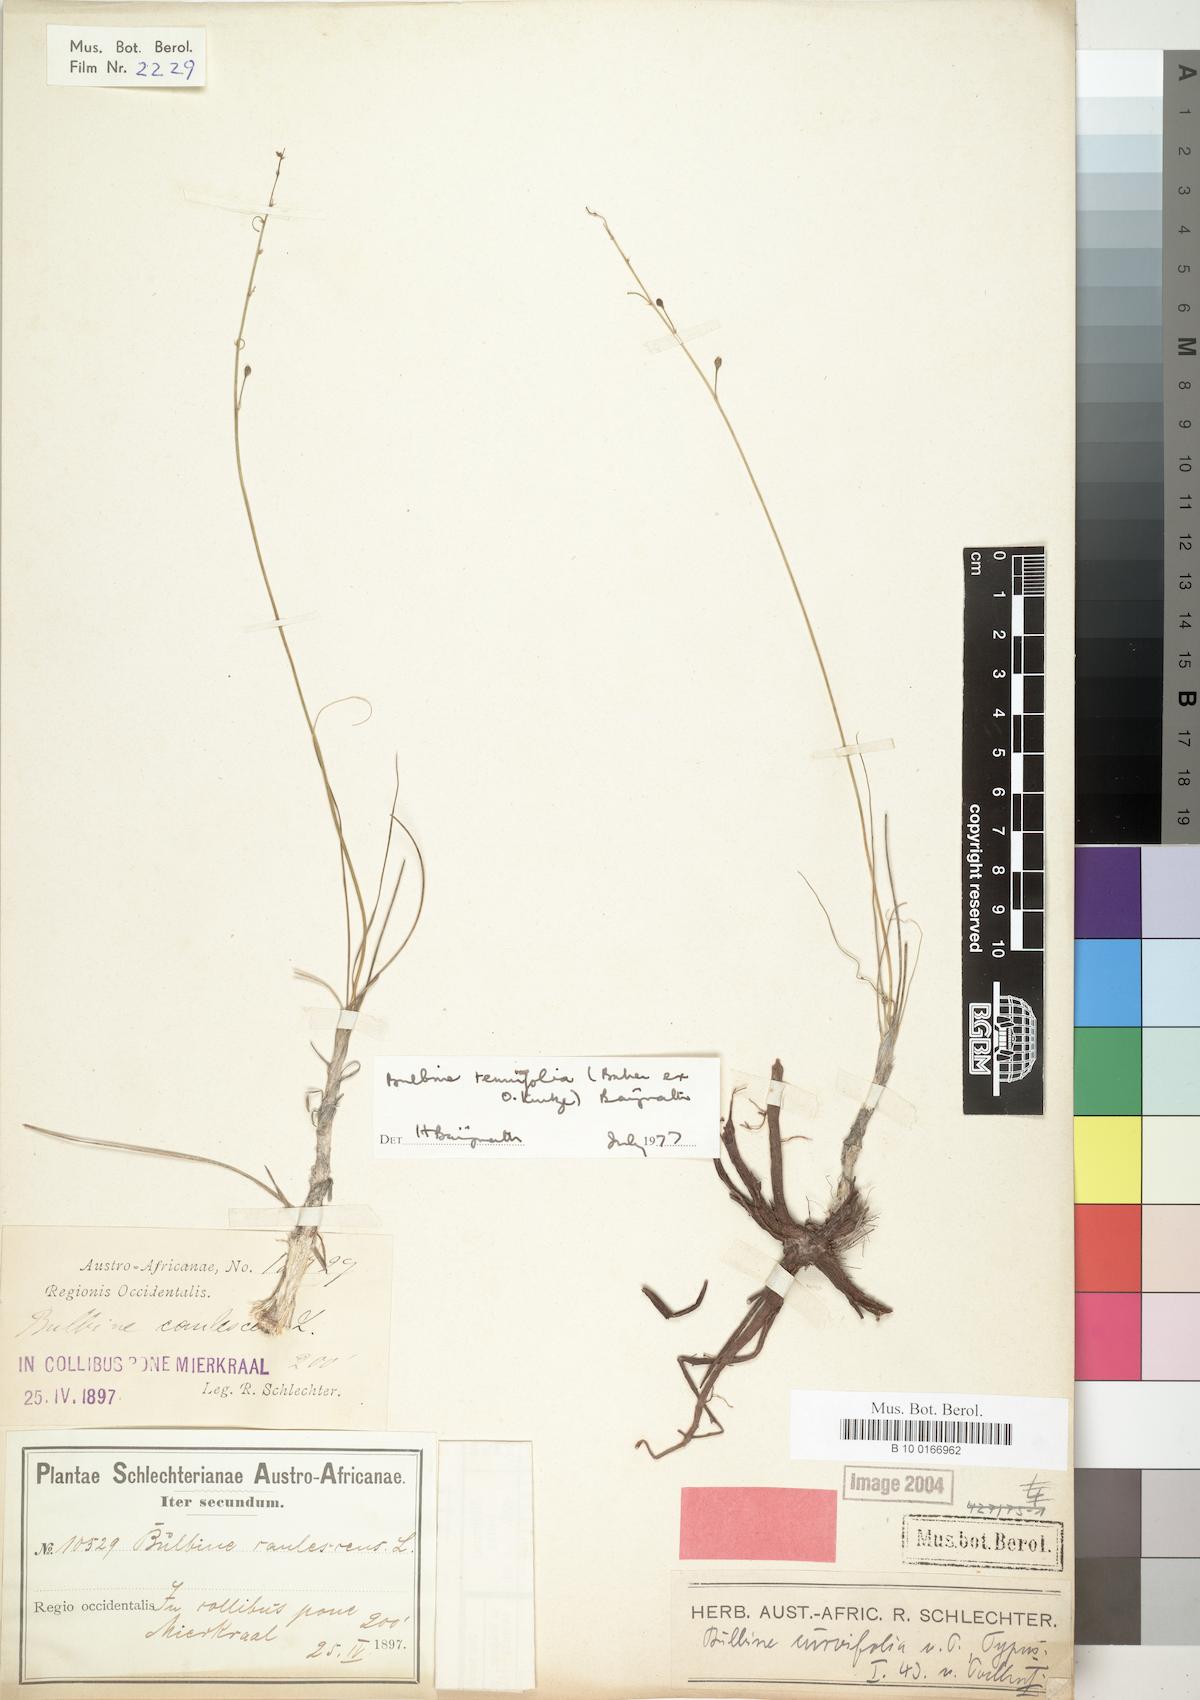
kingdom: Plantae
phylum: Tracheophyta
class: Liliopsida
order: Liliales
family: Liliaceae
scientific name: Liliaceae
